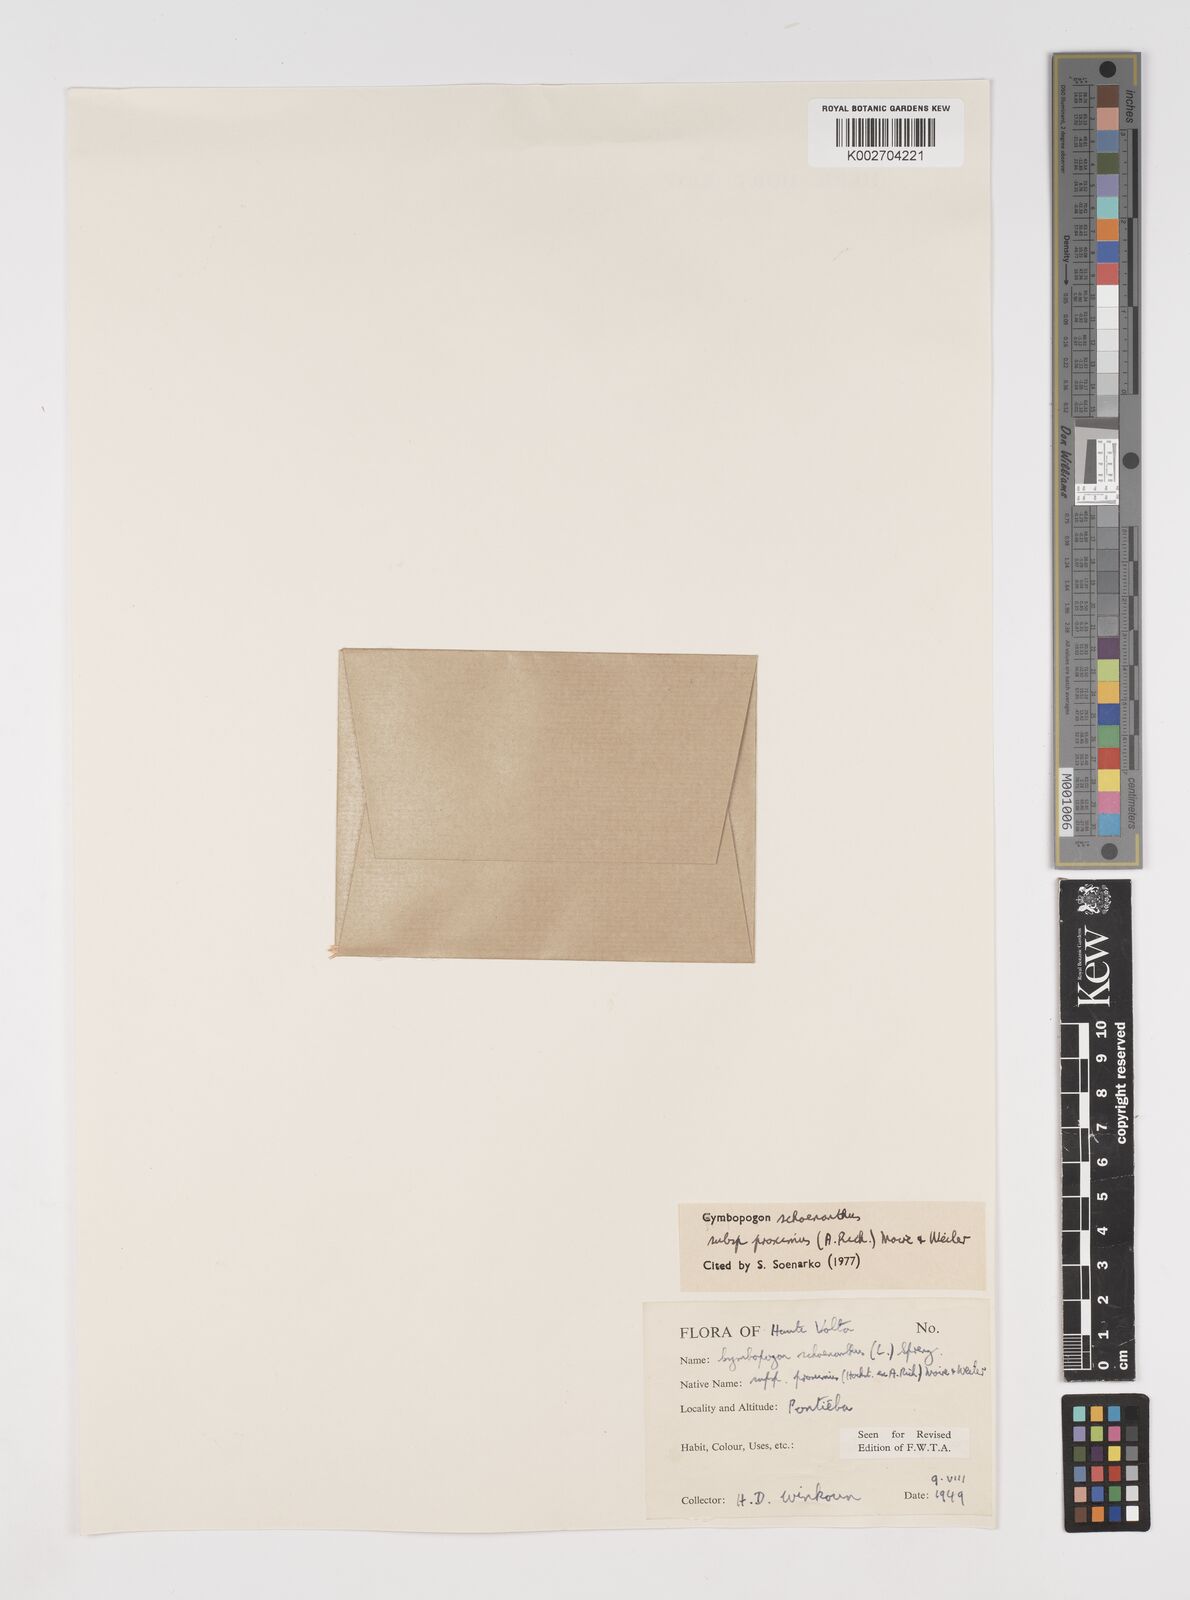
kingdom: Plantae
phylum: Tracheophyta
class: Liliopsida
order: Poales
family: Poaceae
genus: Cymbopogon
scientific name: Cymbopogon schoenanthus
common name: Geranium grass
